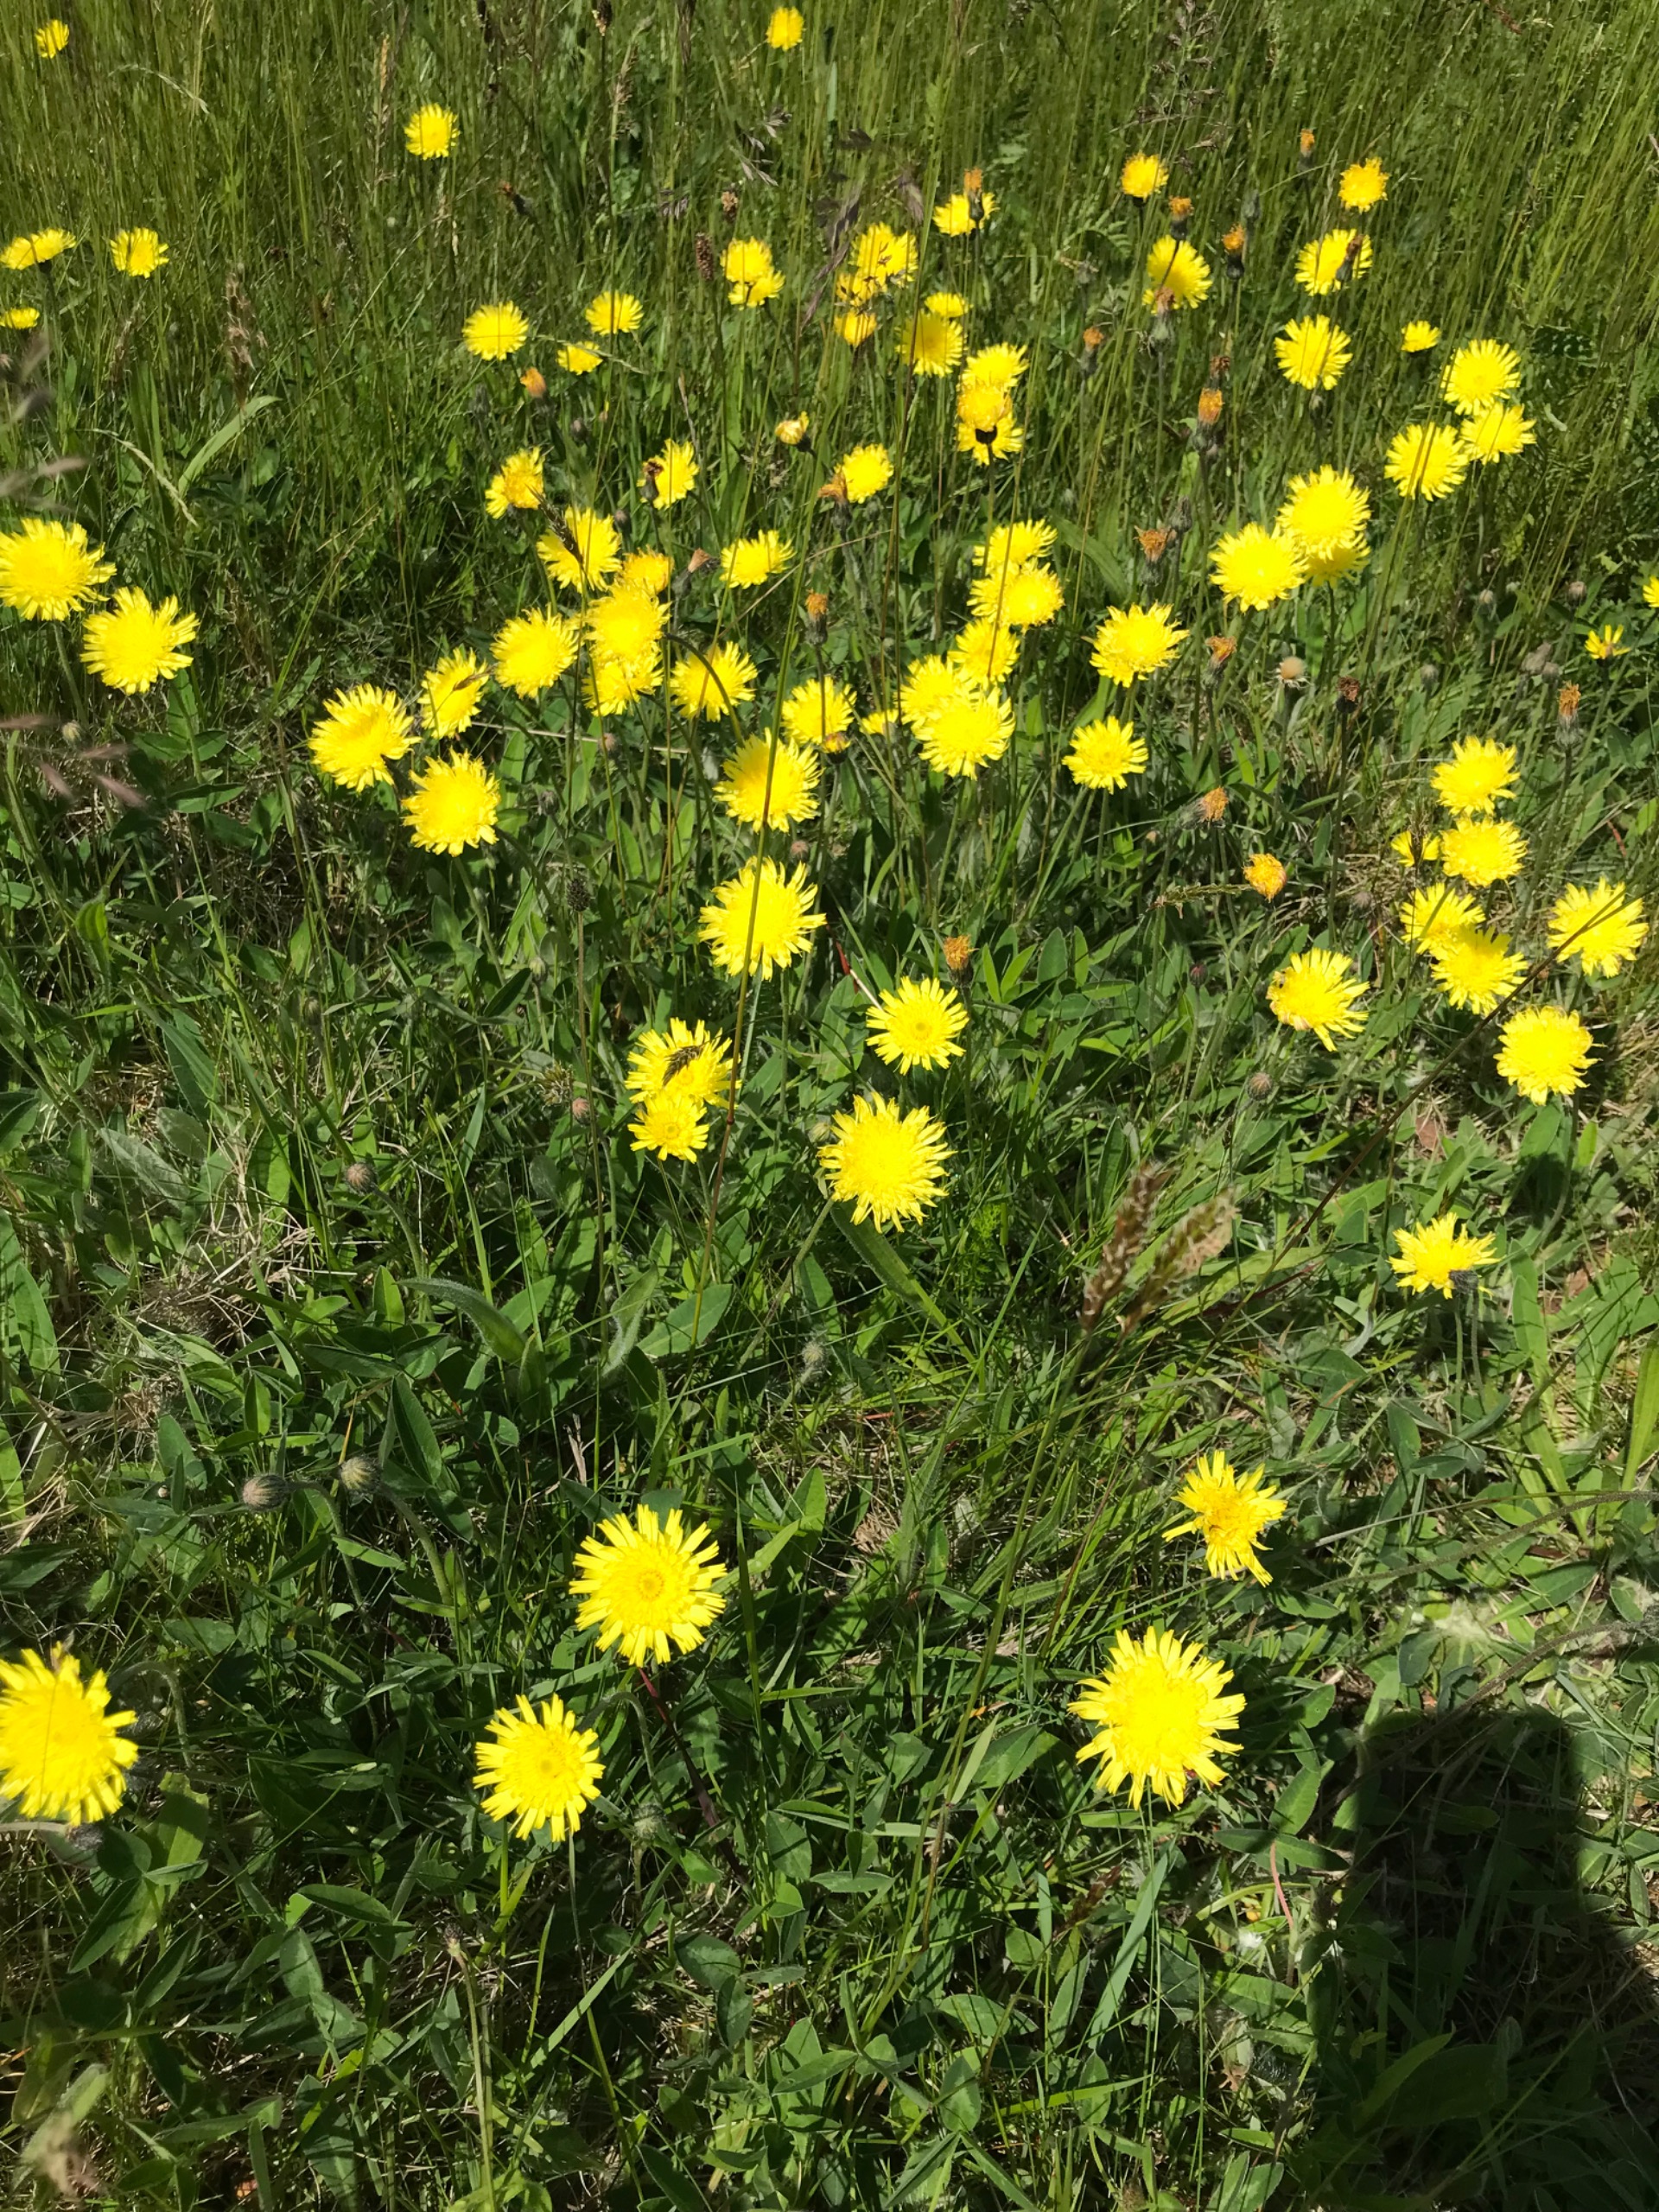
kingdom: Plantae
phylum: Tracheophyta
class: Magnoliopsida
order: Asterales
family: Asteraceae
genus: Pilosella
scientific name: Pilosella officinarum
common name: Håret høgeurt
